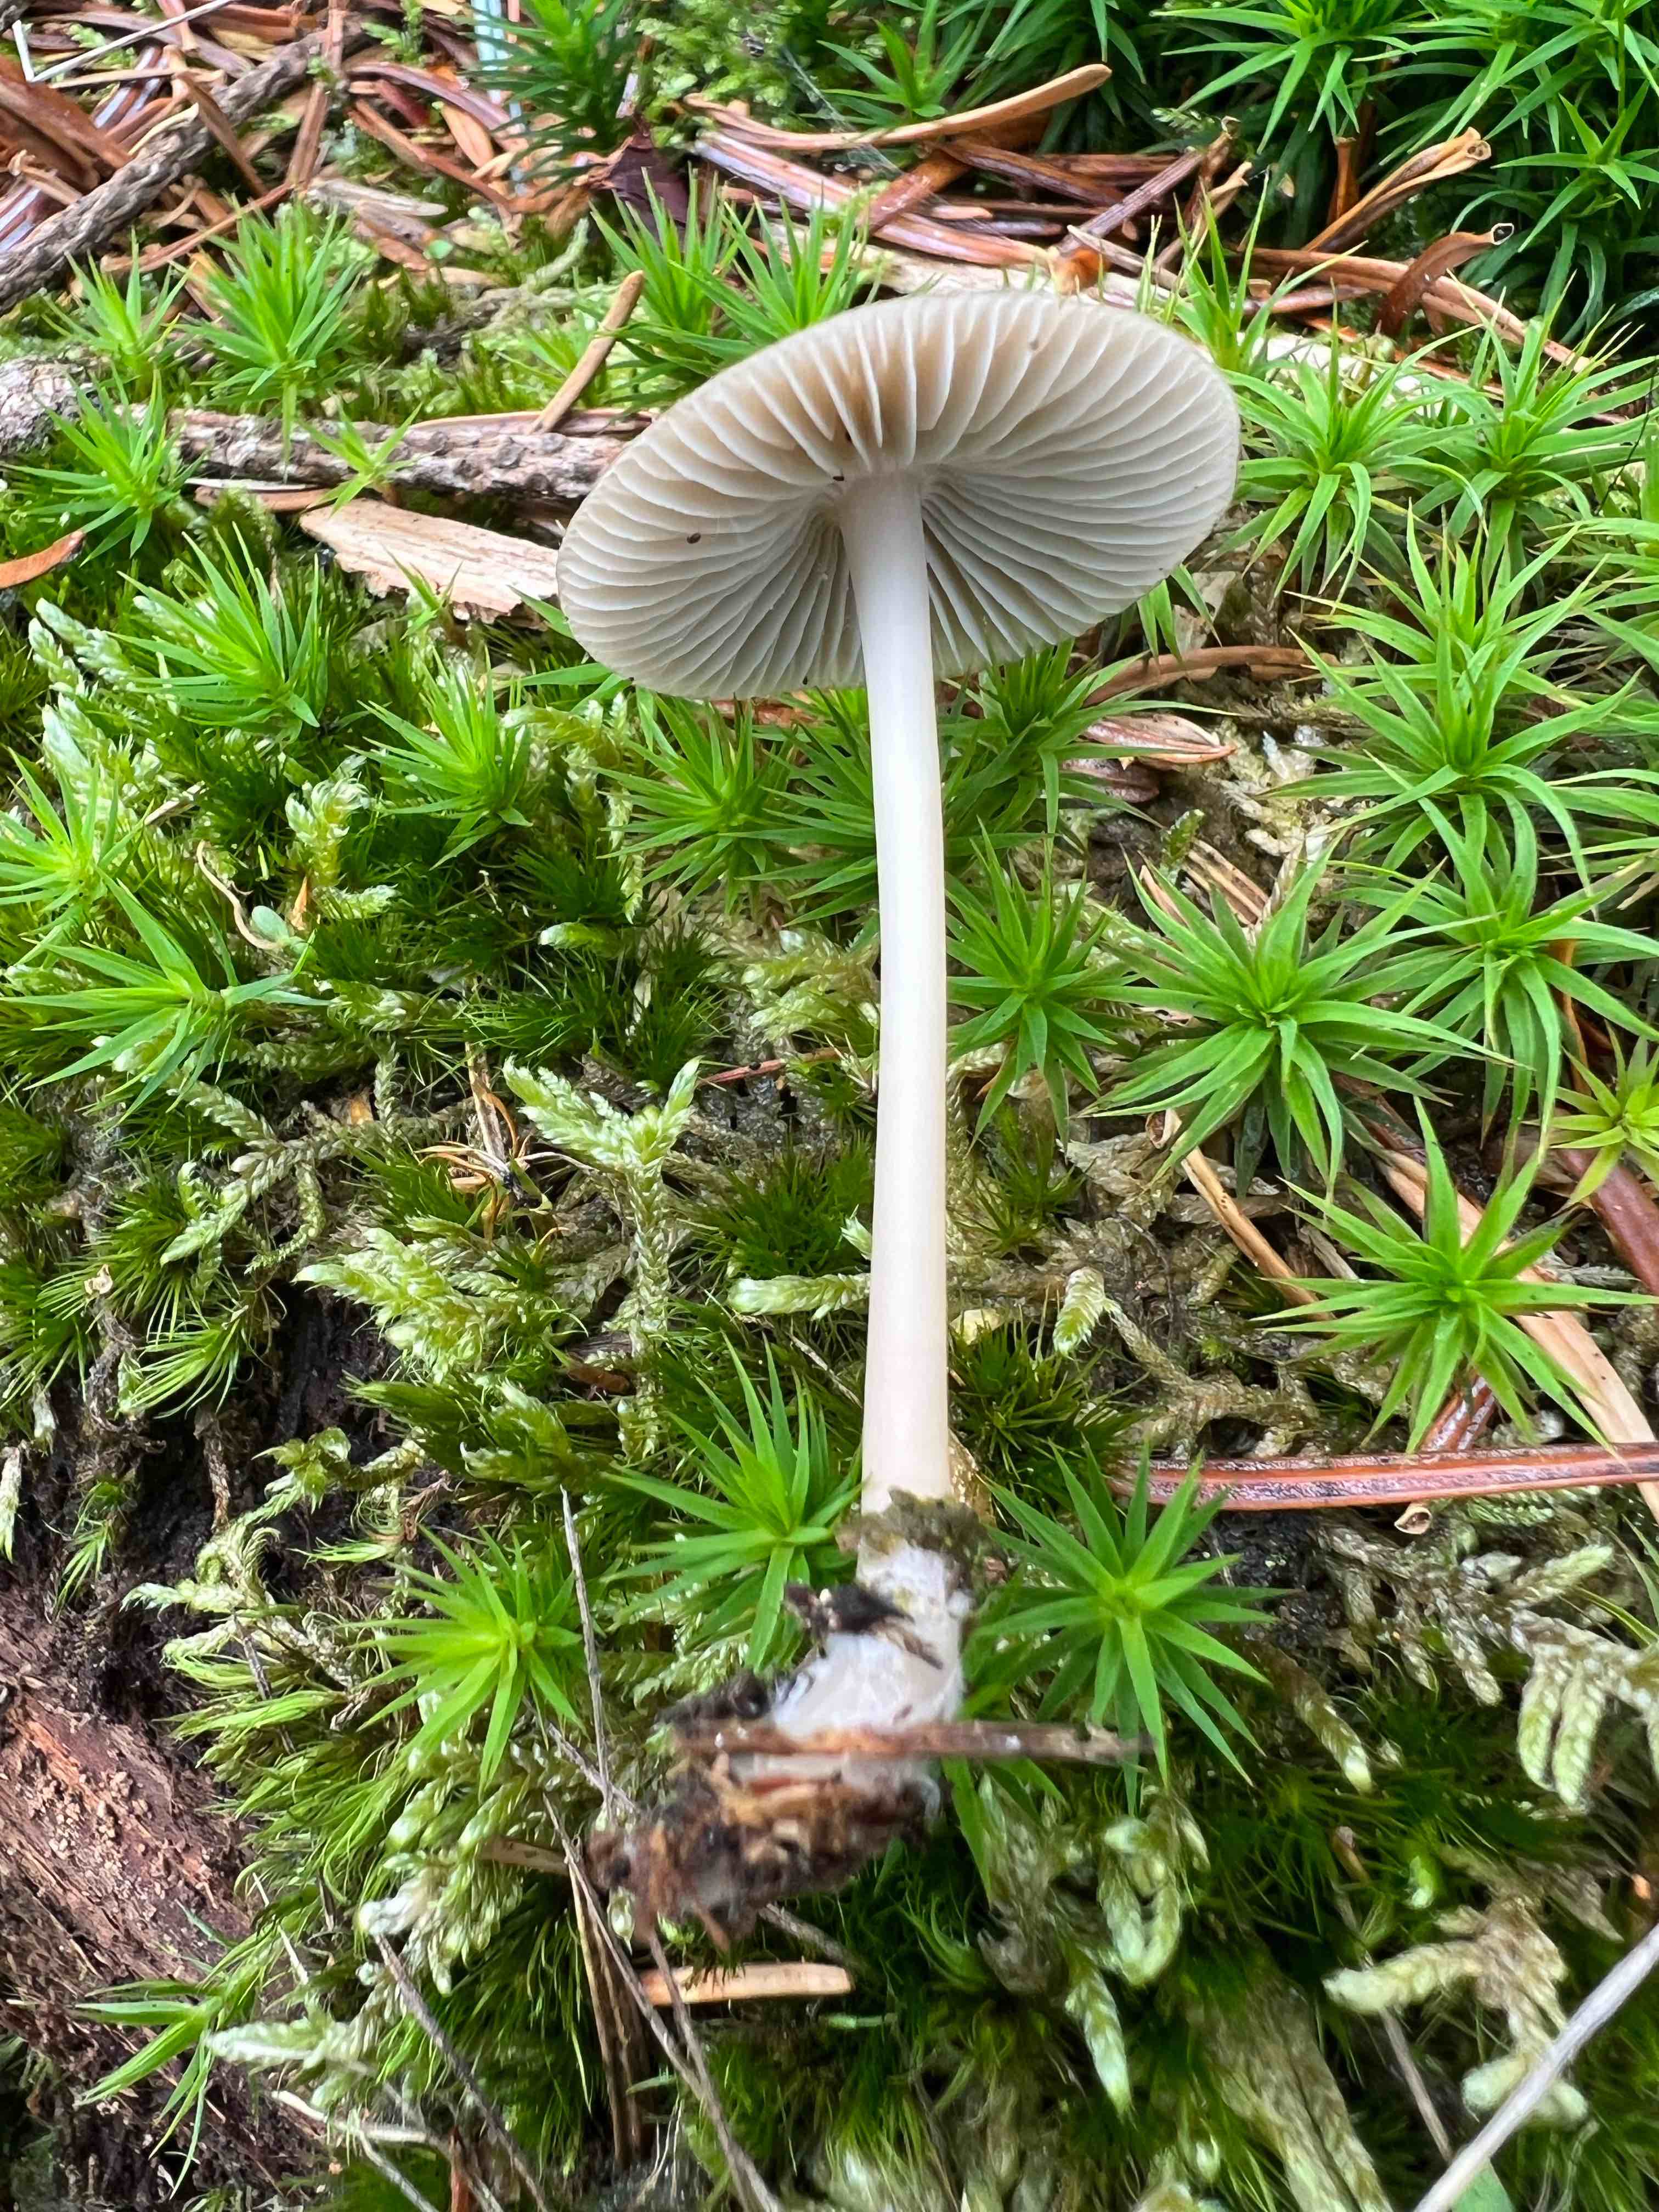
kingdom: Fungi
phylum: Basidiomycota
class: Agaricomycetes
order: Agaricales
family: Mycenaceae
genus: Mycena
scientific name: Mycena galericulata
